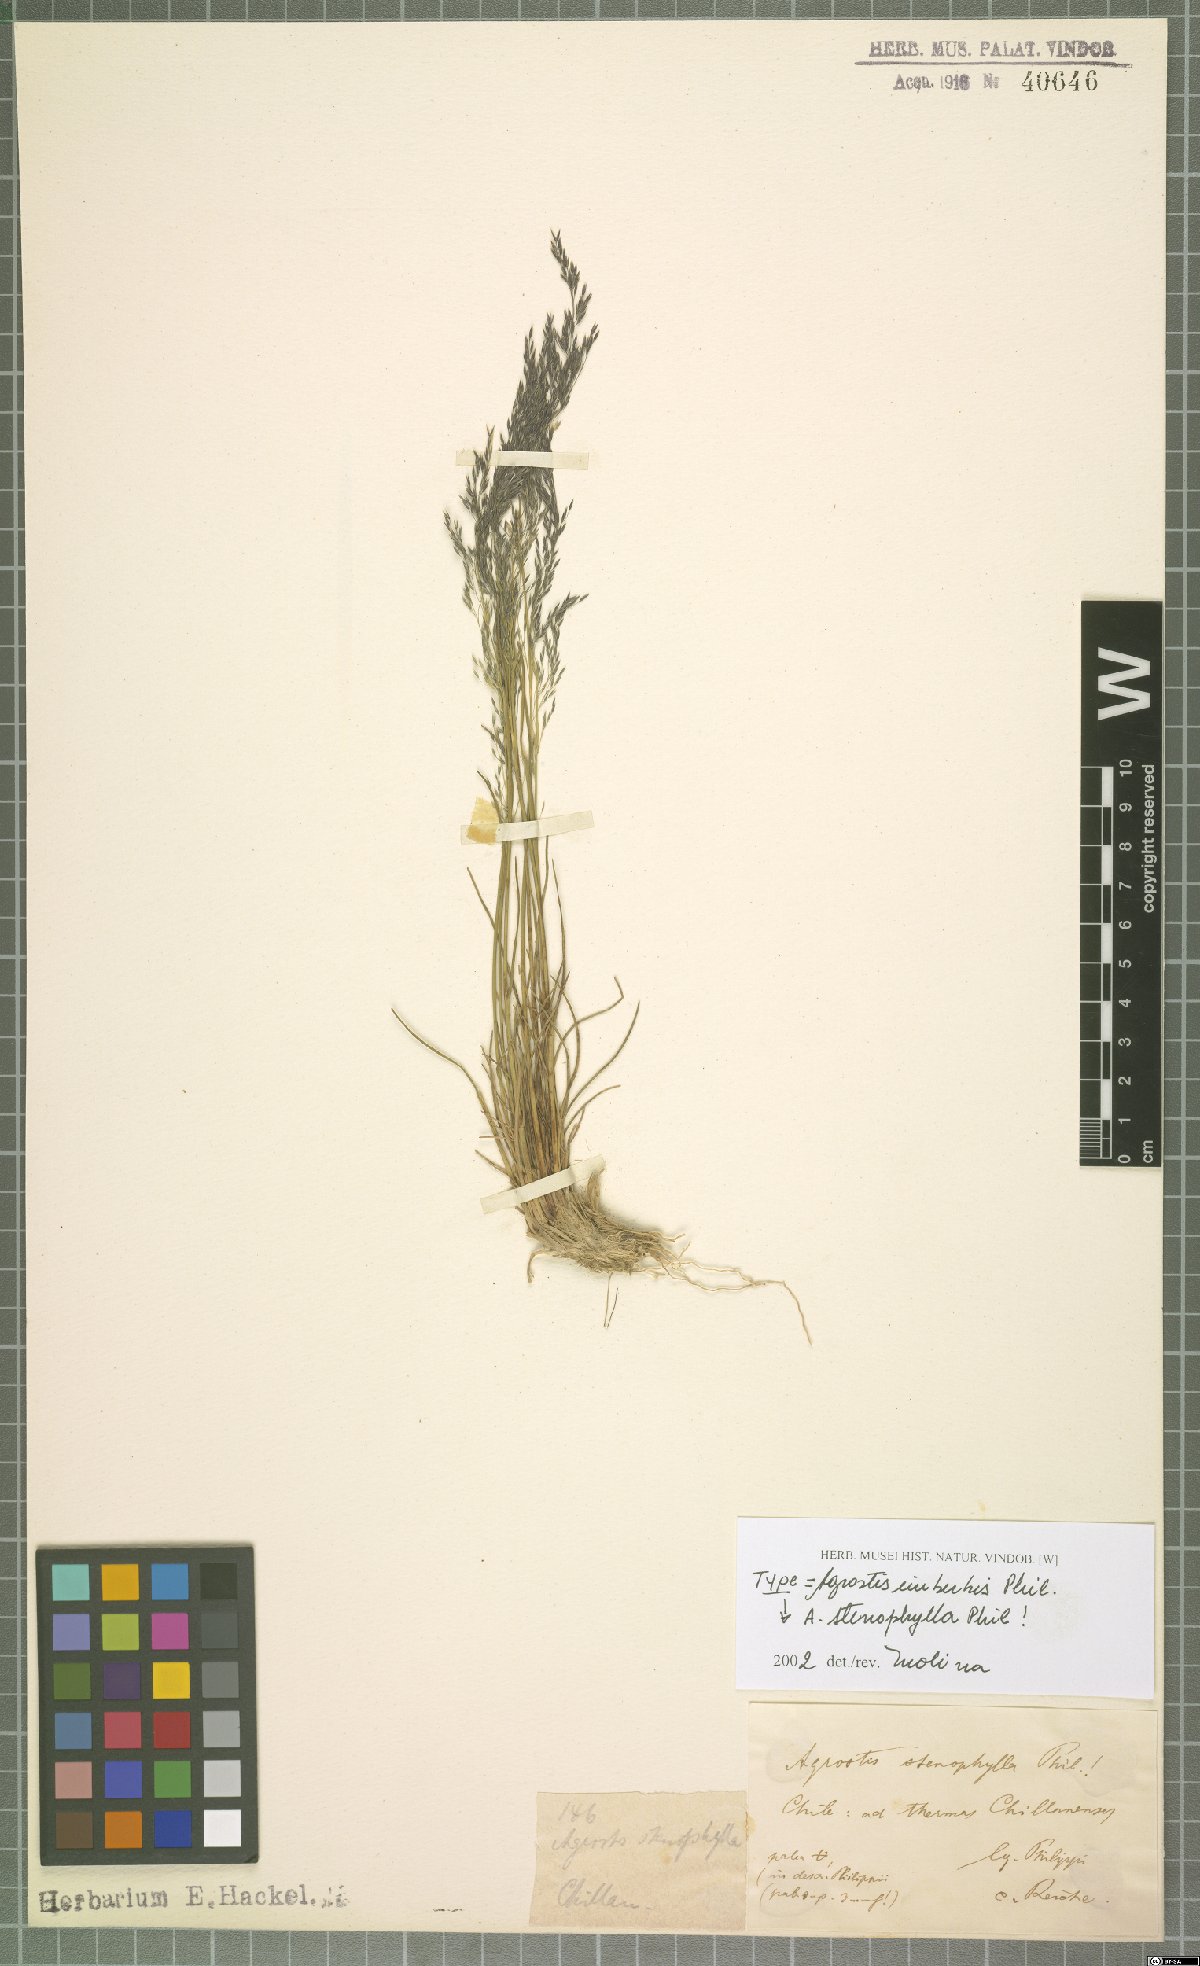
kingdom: Plantae
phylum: Tracheophyta
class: Liliopsida
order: Poales
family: Poaceae
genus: Agrostis
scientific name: Agrostis imberbis
